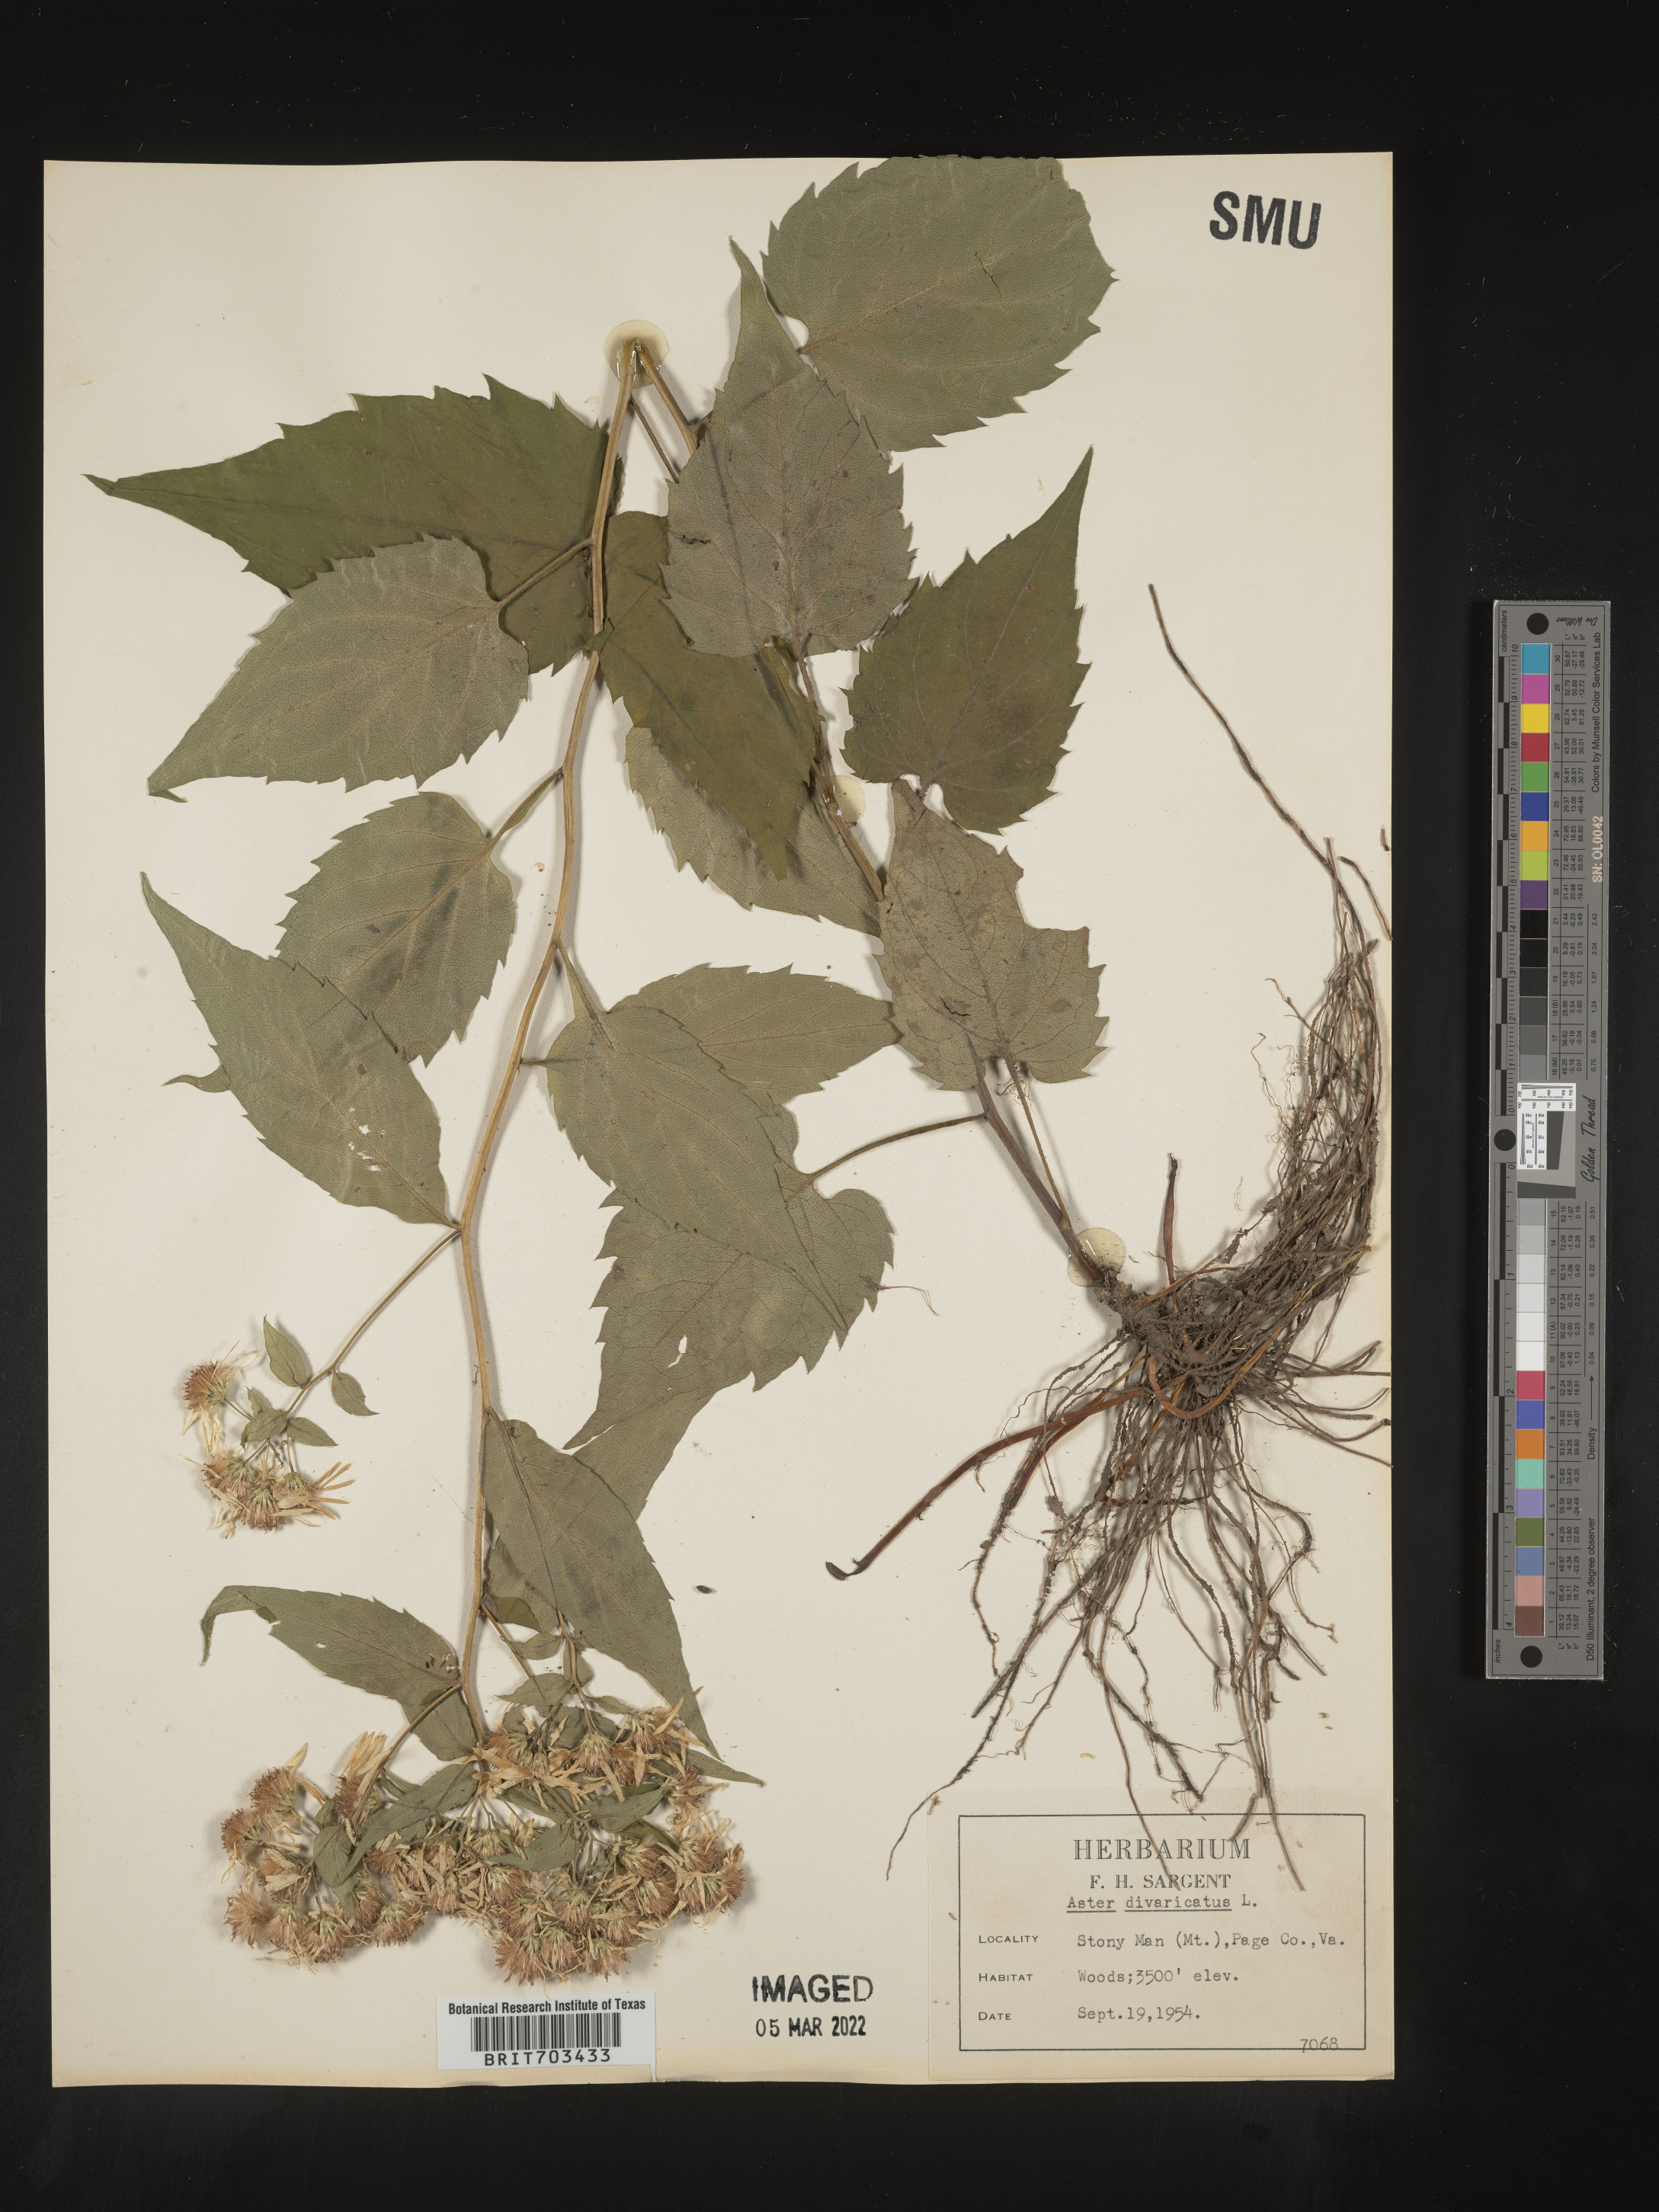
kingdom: Plantae
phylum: Tracheophyta
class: Magnoliopsida
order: Asterales
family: Asteraceae
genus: Eurybia
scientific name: Eurybia divaricata
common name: White wood aster
